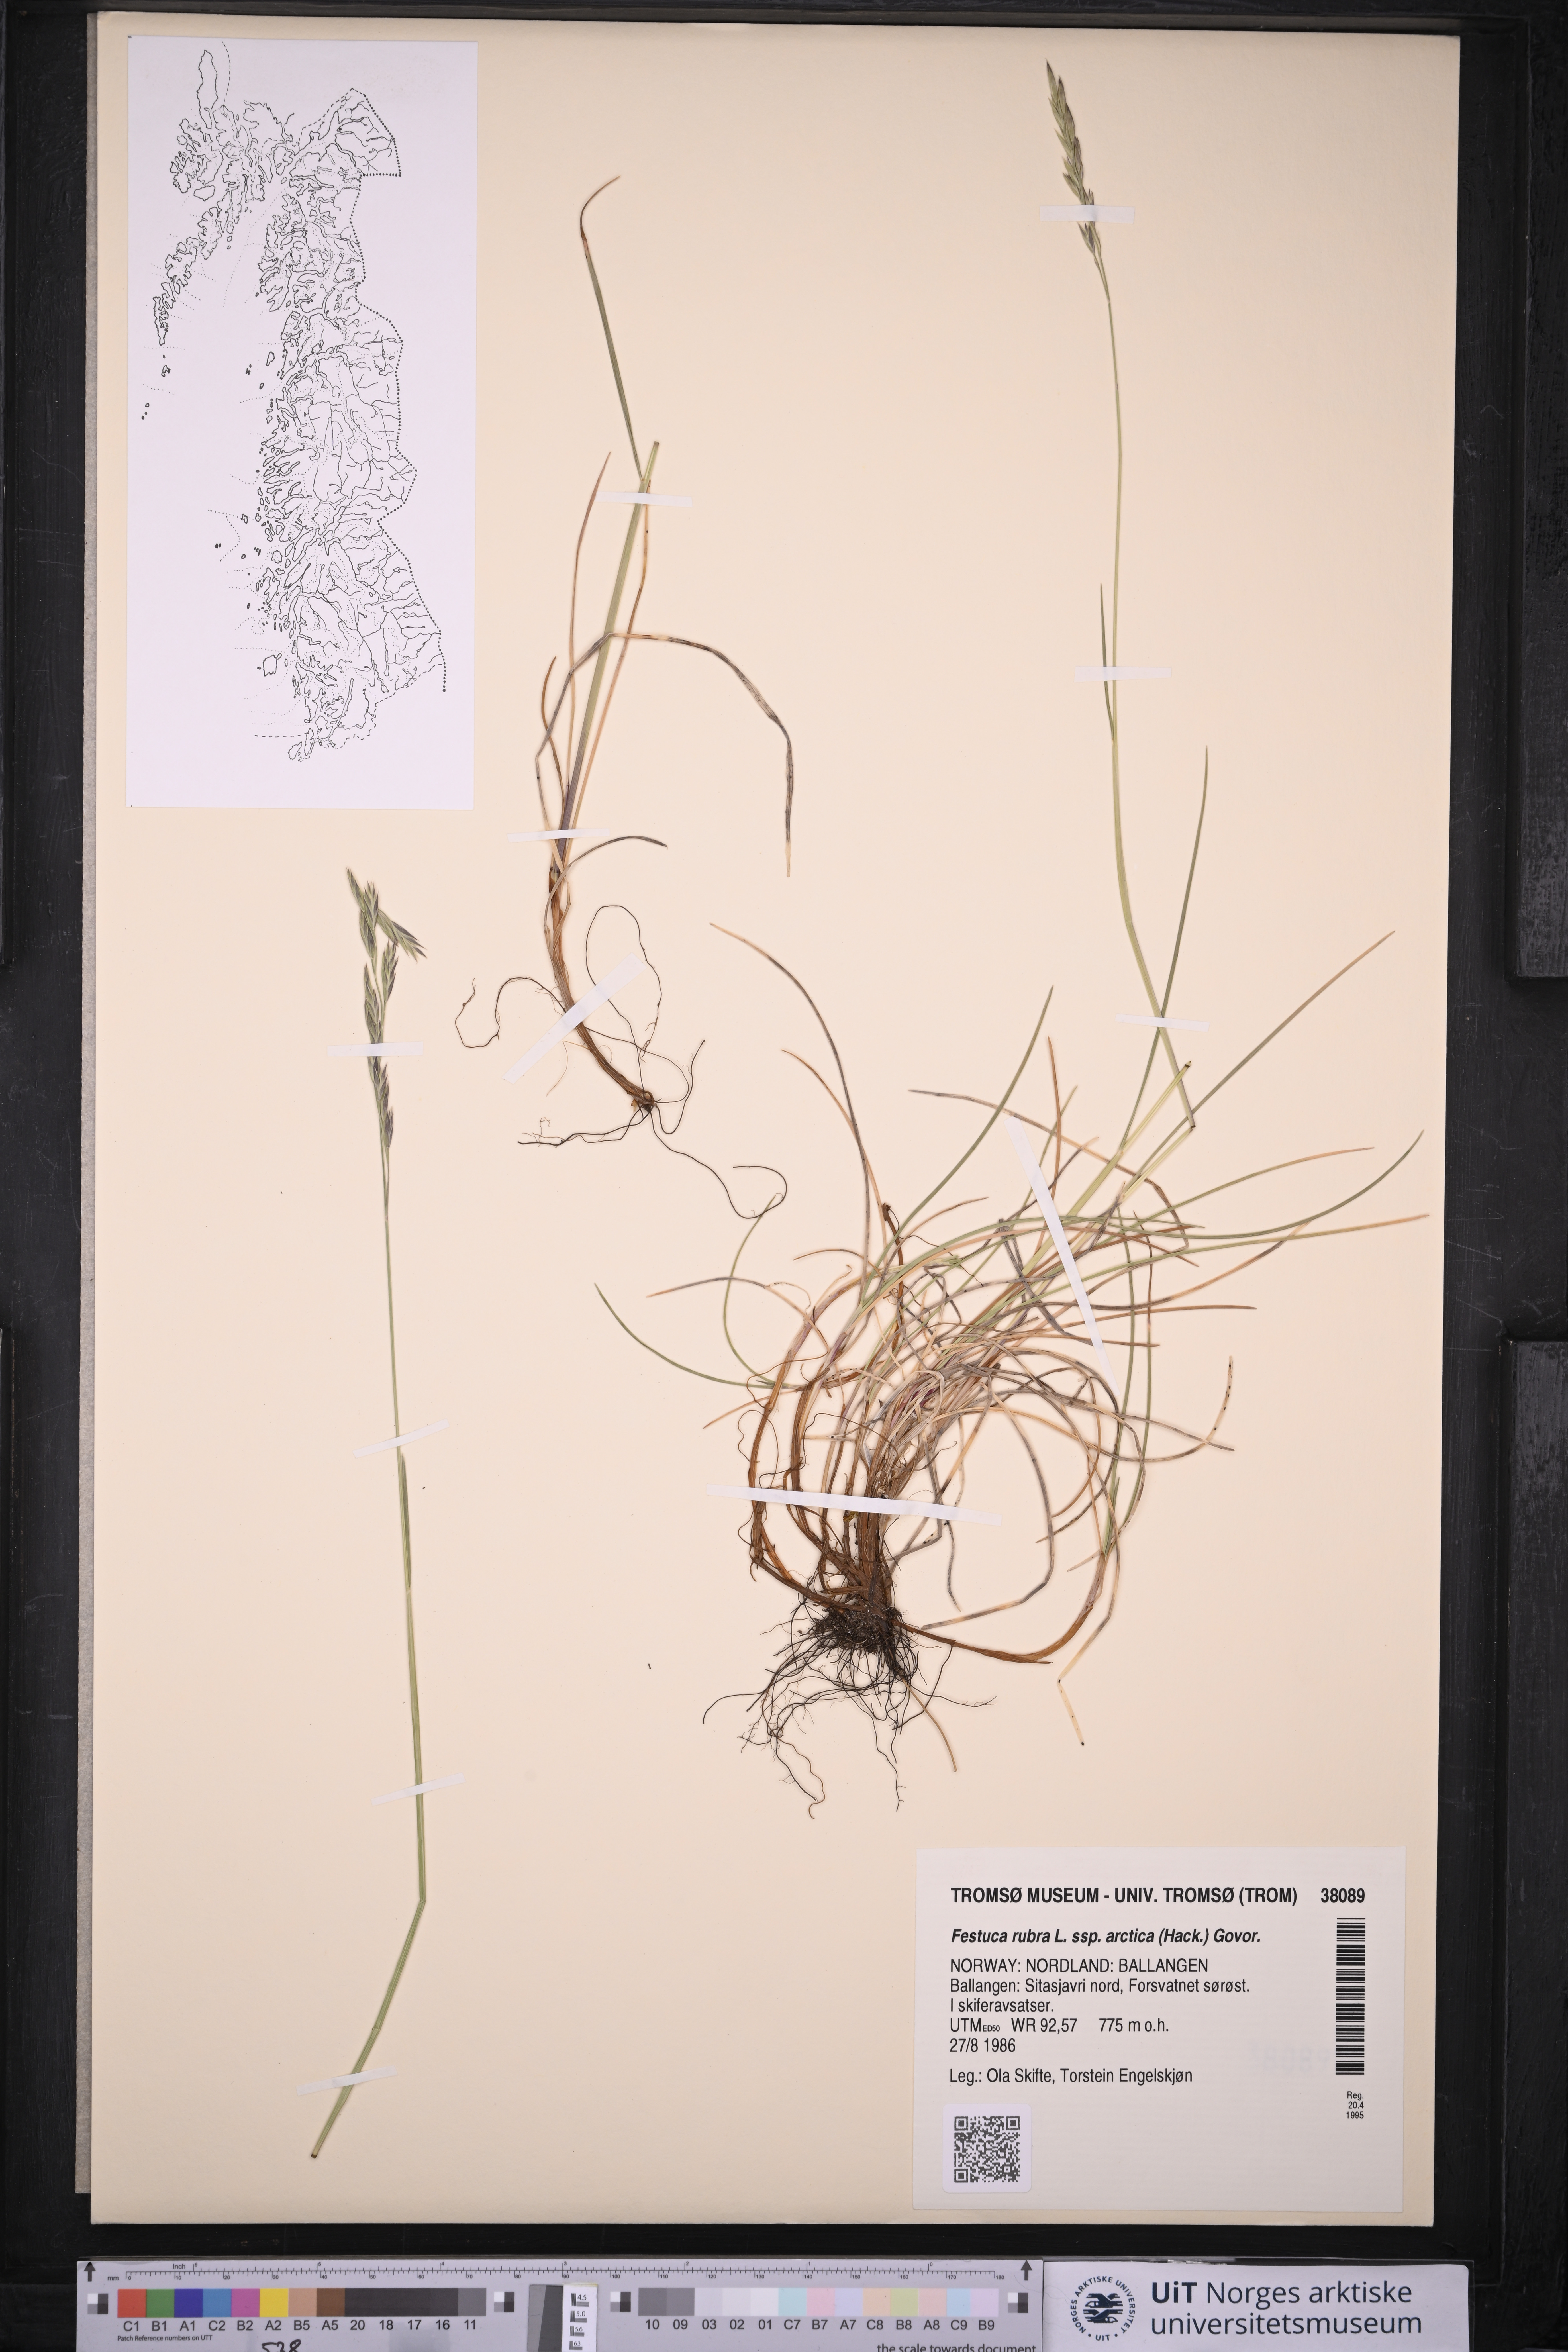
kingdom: Plantae
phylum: Tracheophyta
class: Liliopsida
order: Poales
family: Poaceae
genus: Festuca
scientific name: Festuca richardsonii
